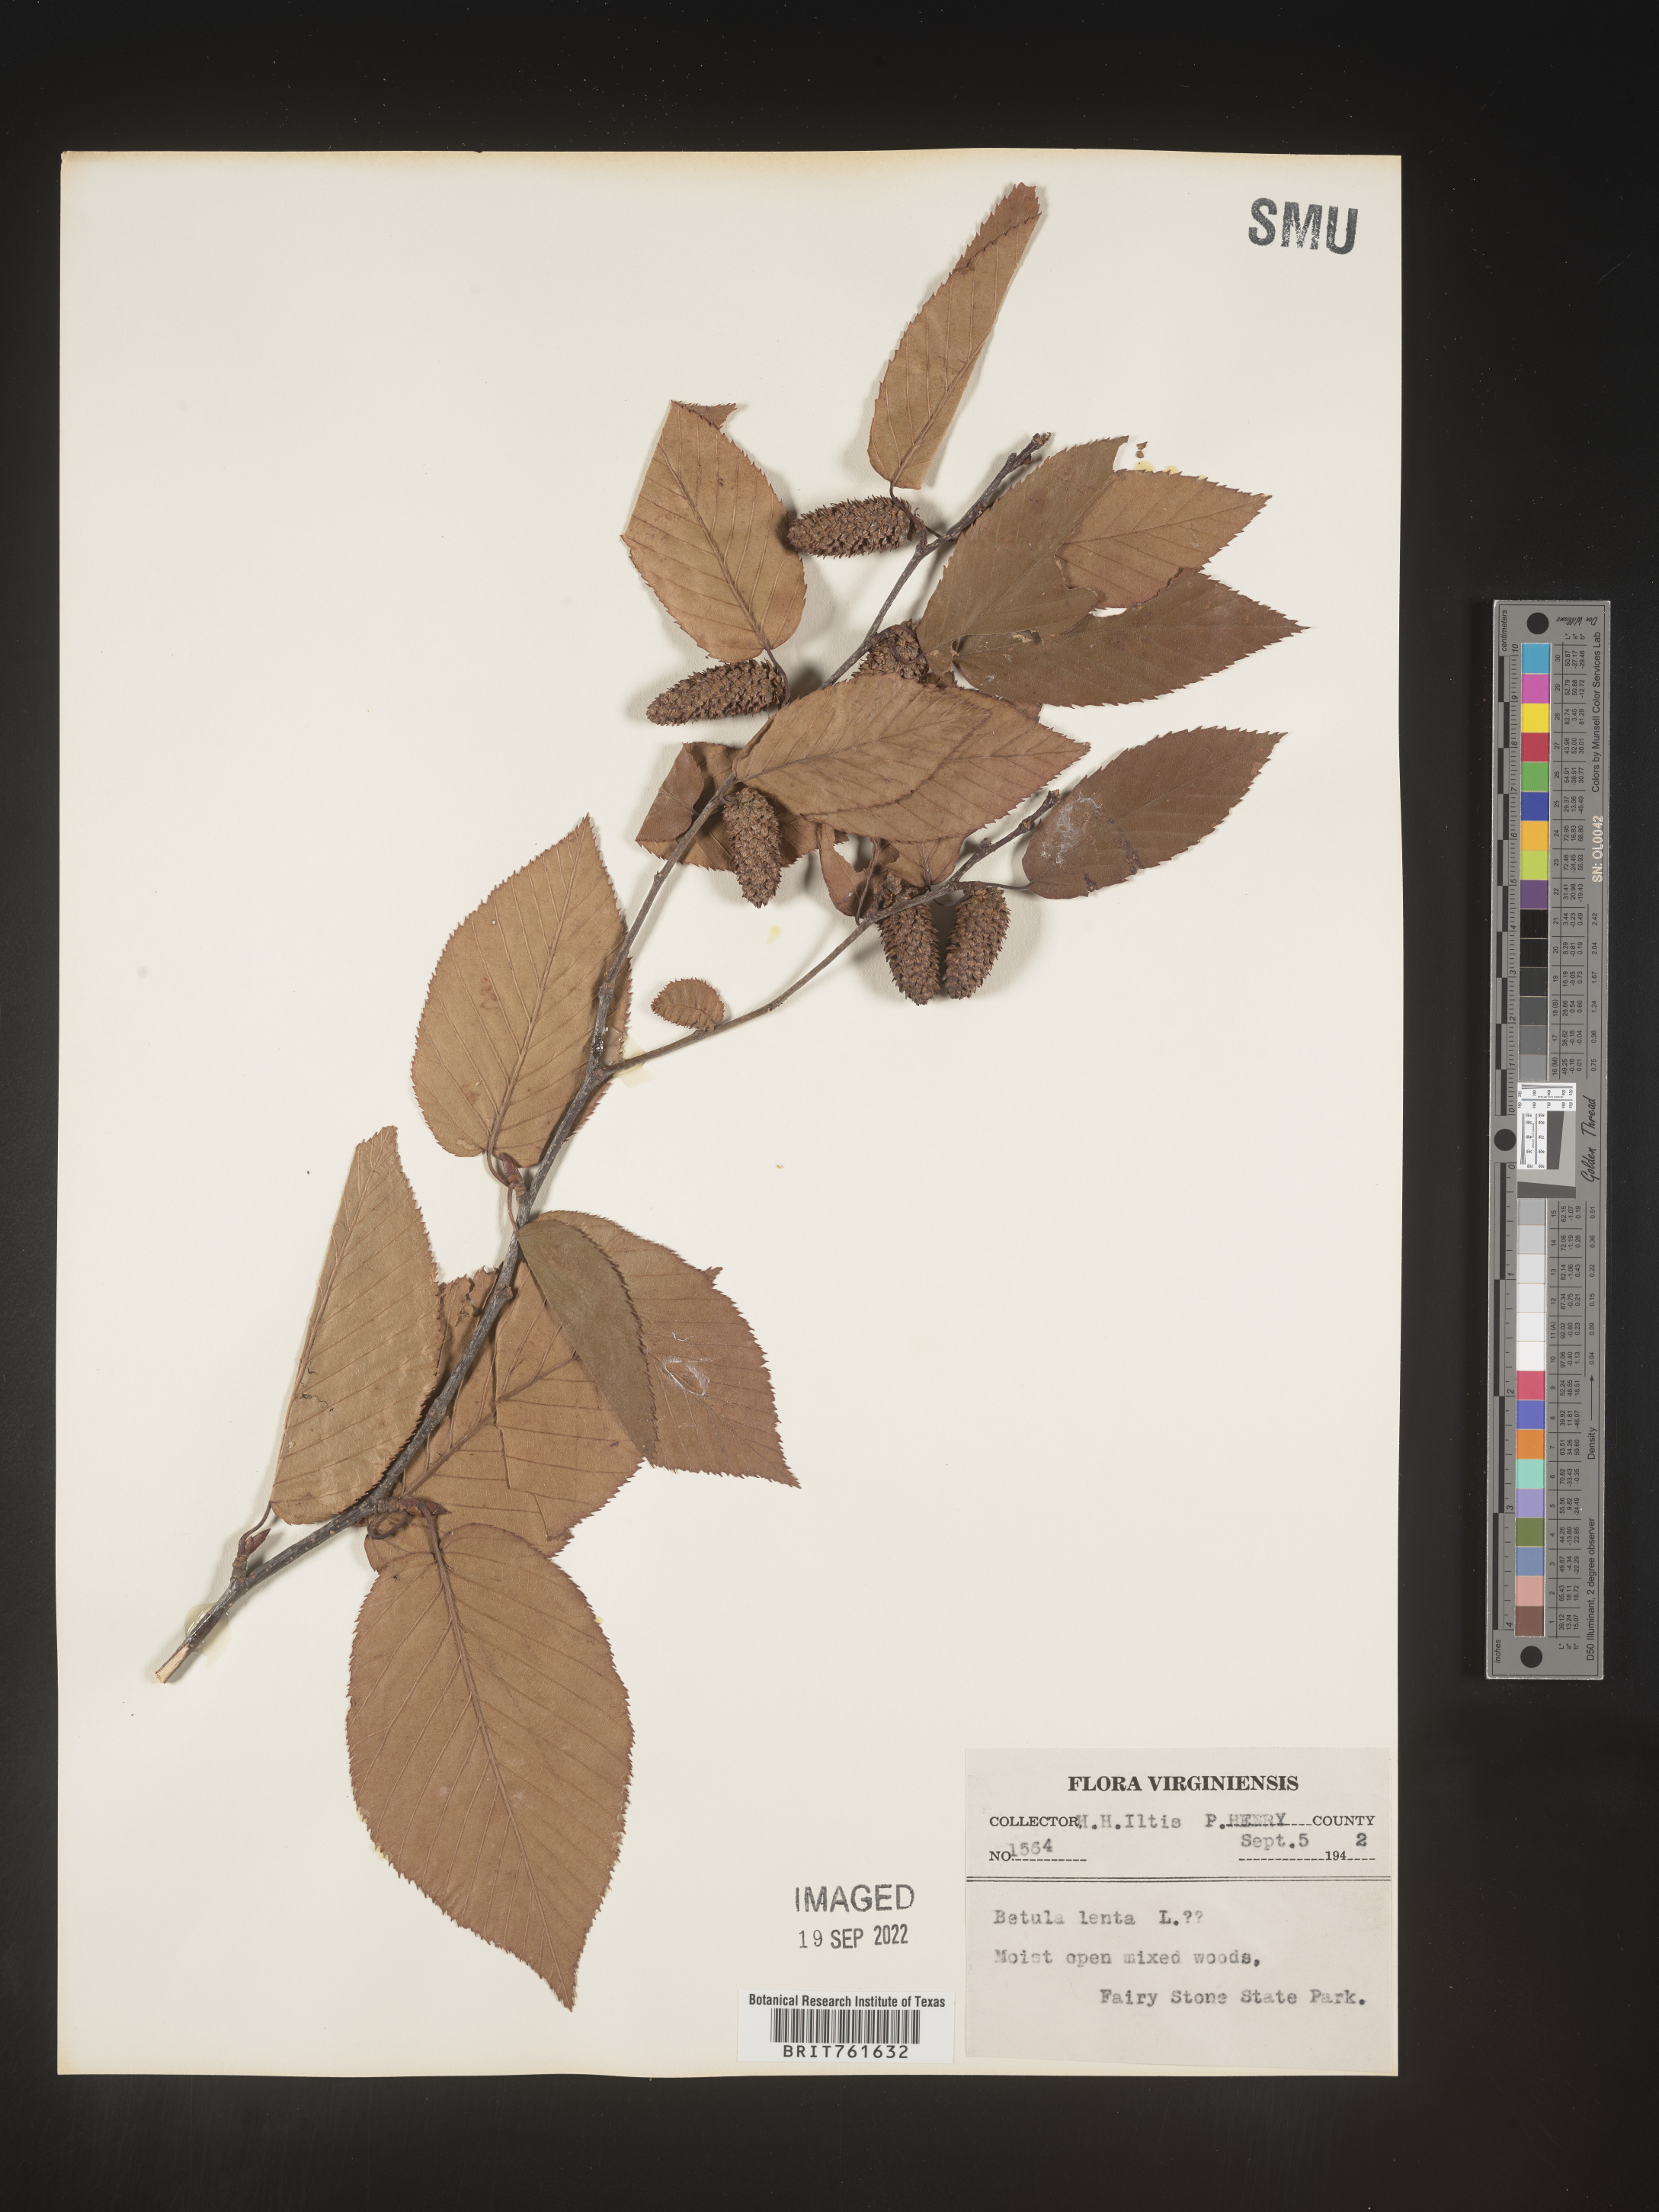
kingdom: Plantae
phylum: Tracheophyta
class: Magnoliopsida
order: Fagales
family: Betulaceae
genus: Betula
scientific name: Betula lenta
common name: Black birch
